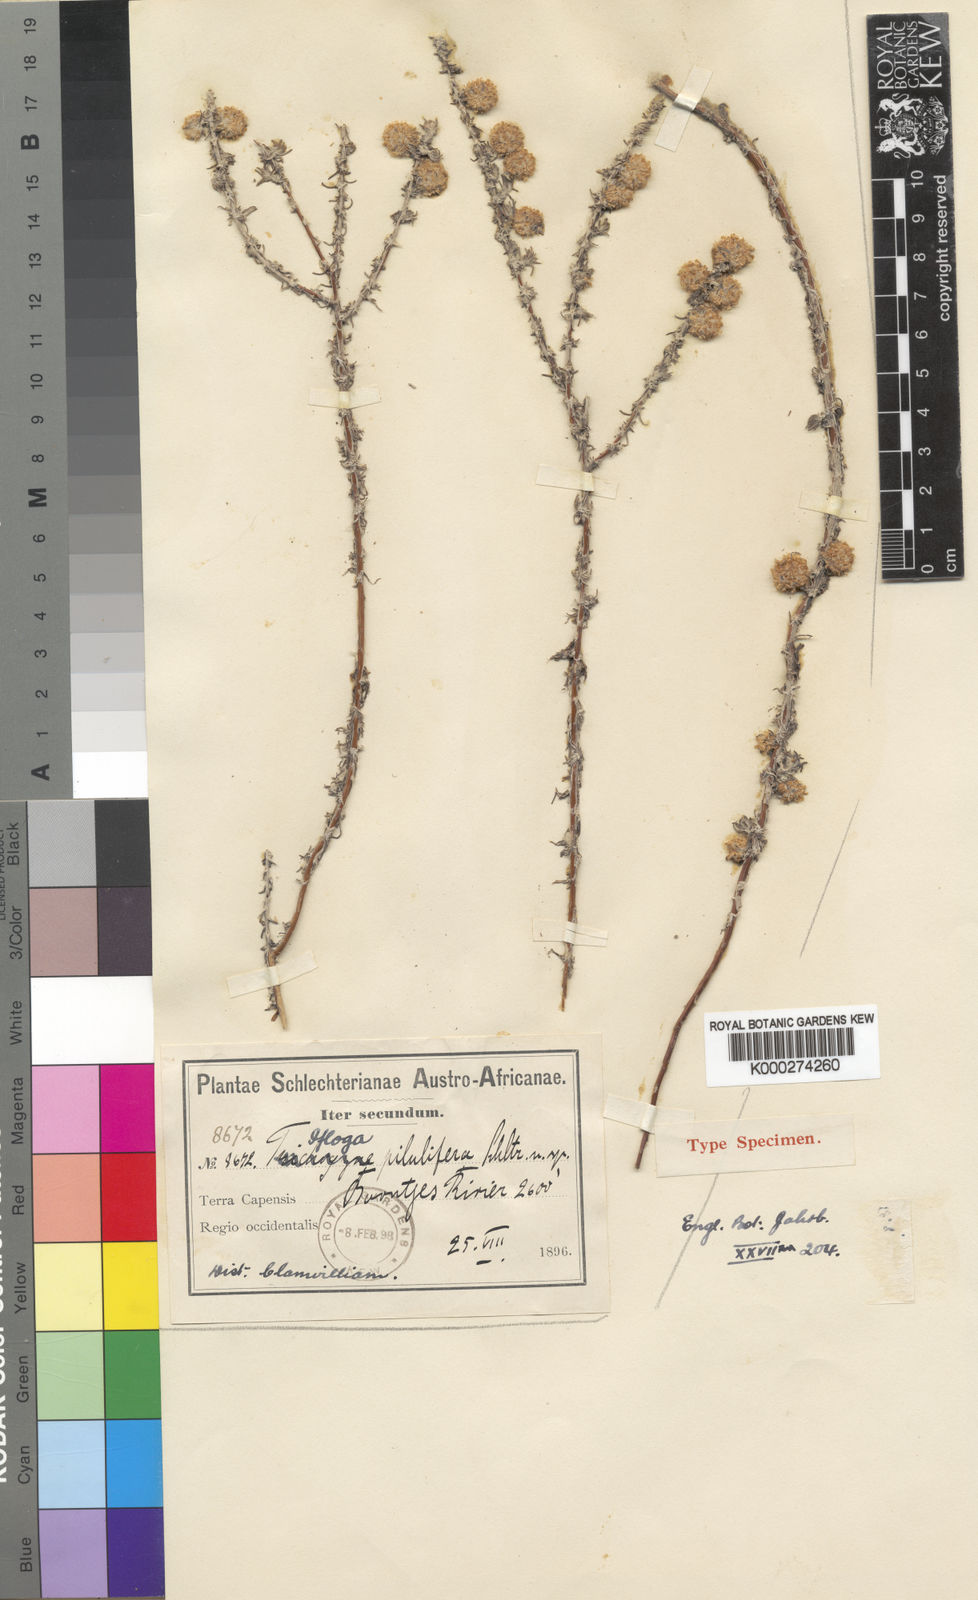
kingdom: Plantae
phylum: Tracheophyta
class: Magnoliopsida
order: Asterales
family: Asteraceae
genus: Ifloga
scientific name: Ifloga pilulifera
